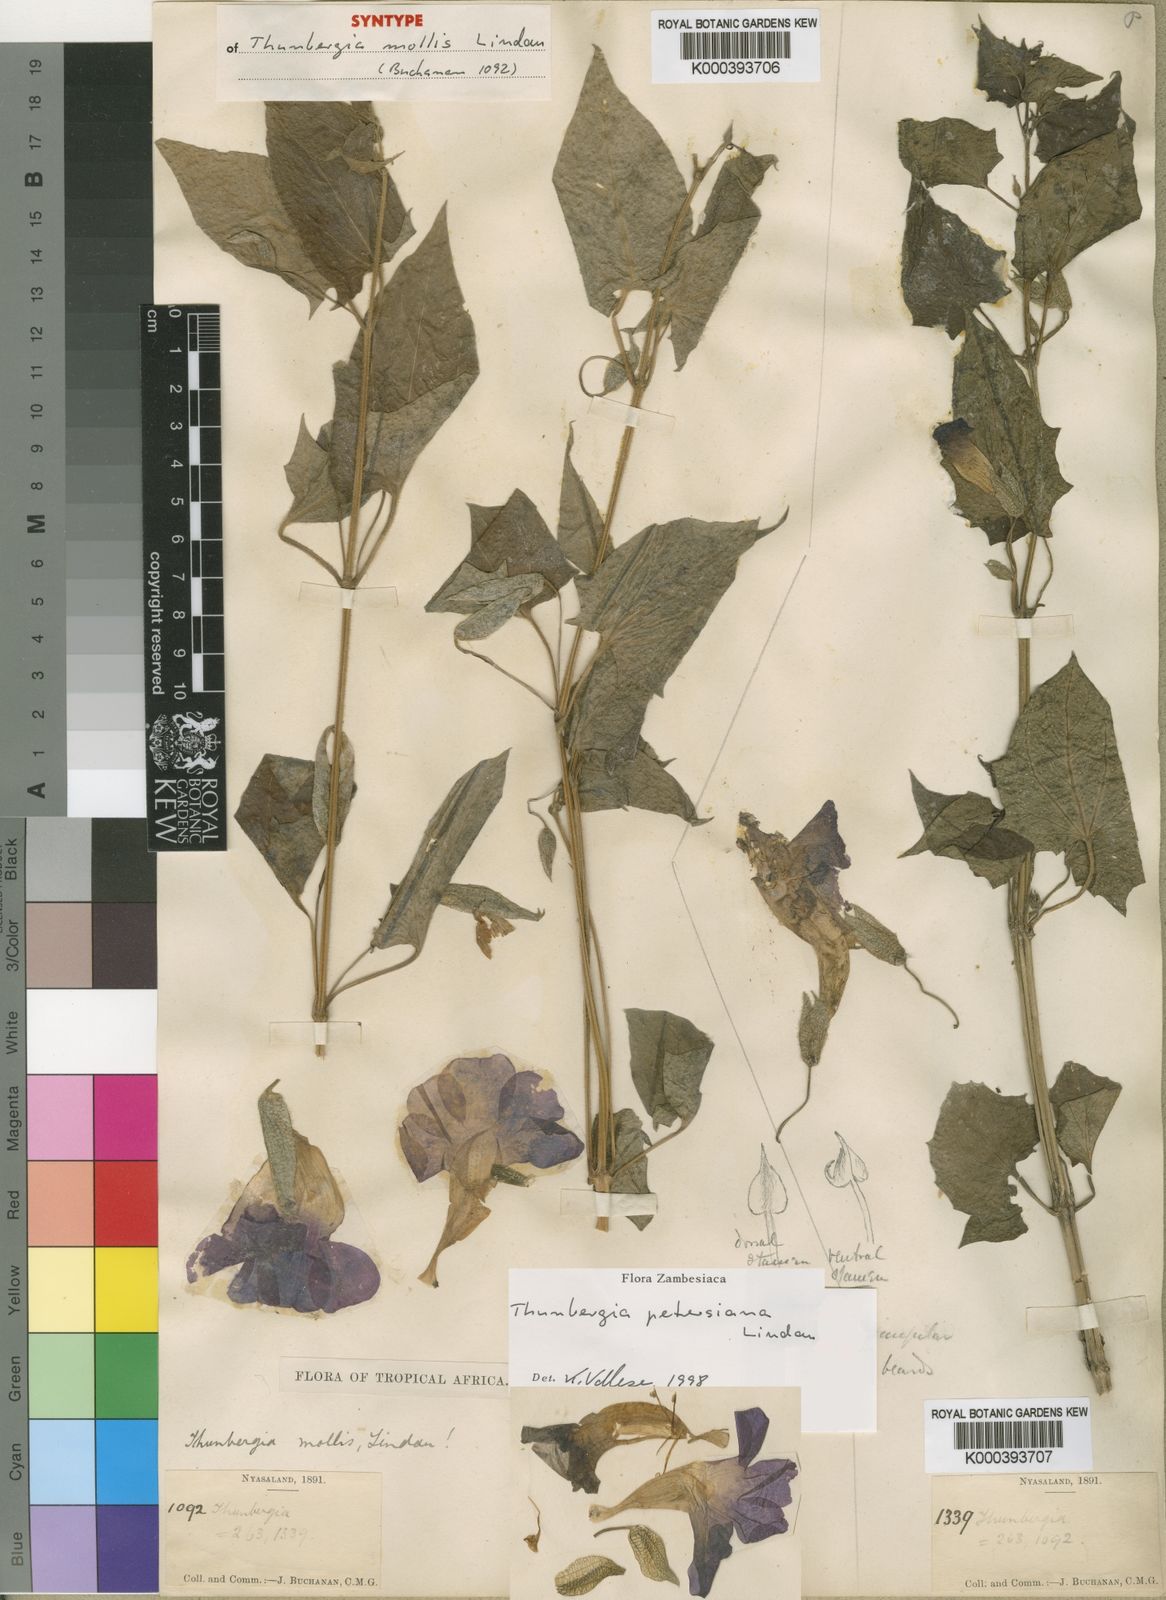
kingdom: Plantae
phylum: Tracheophyta
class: Magnoliopsida
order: Lamiales
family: Acanthaceae
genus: Thunbergia
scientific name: Thunbergia petersiana
